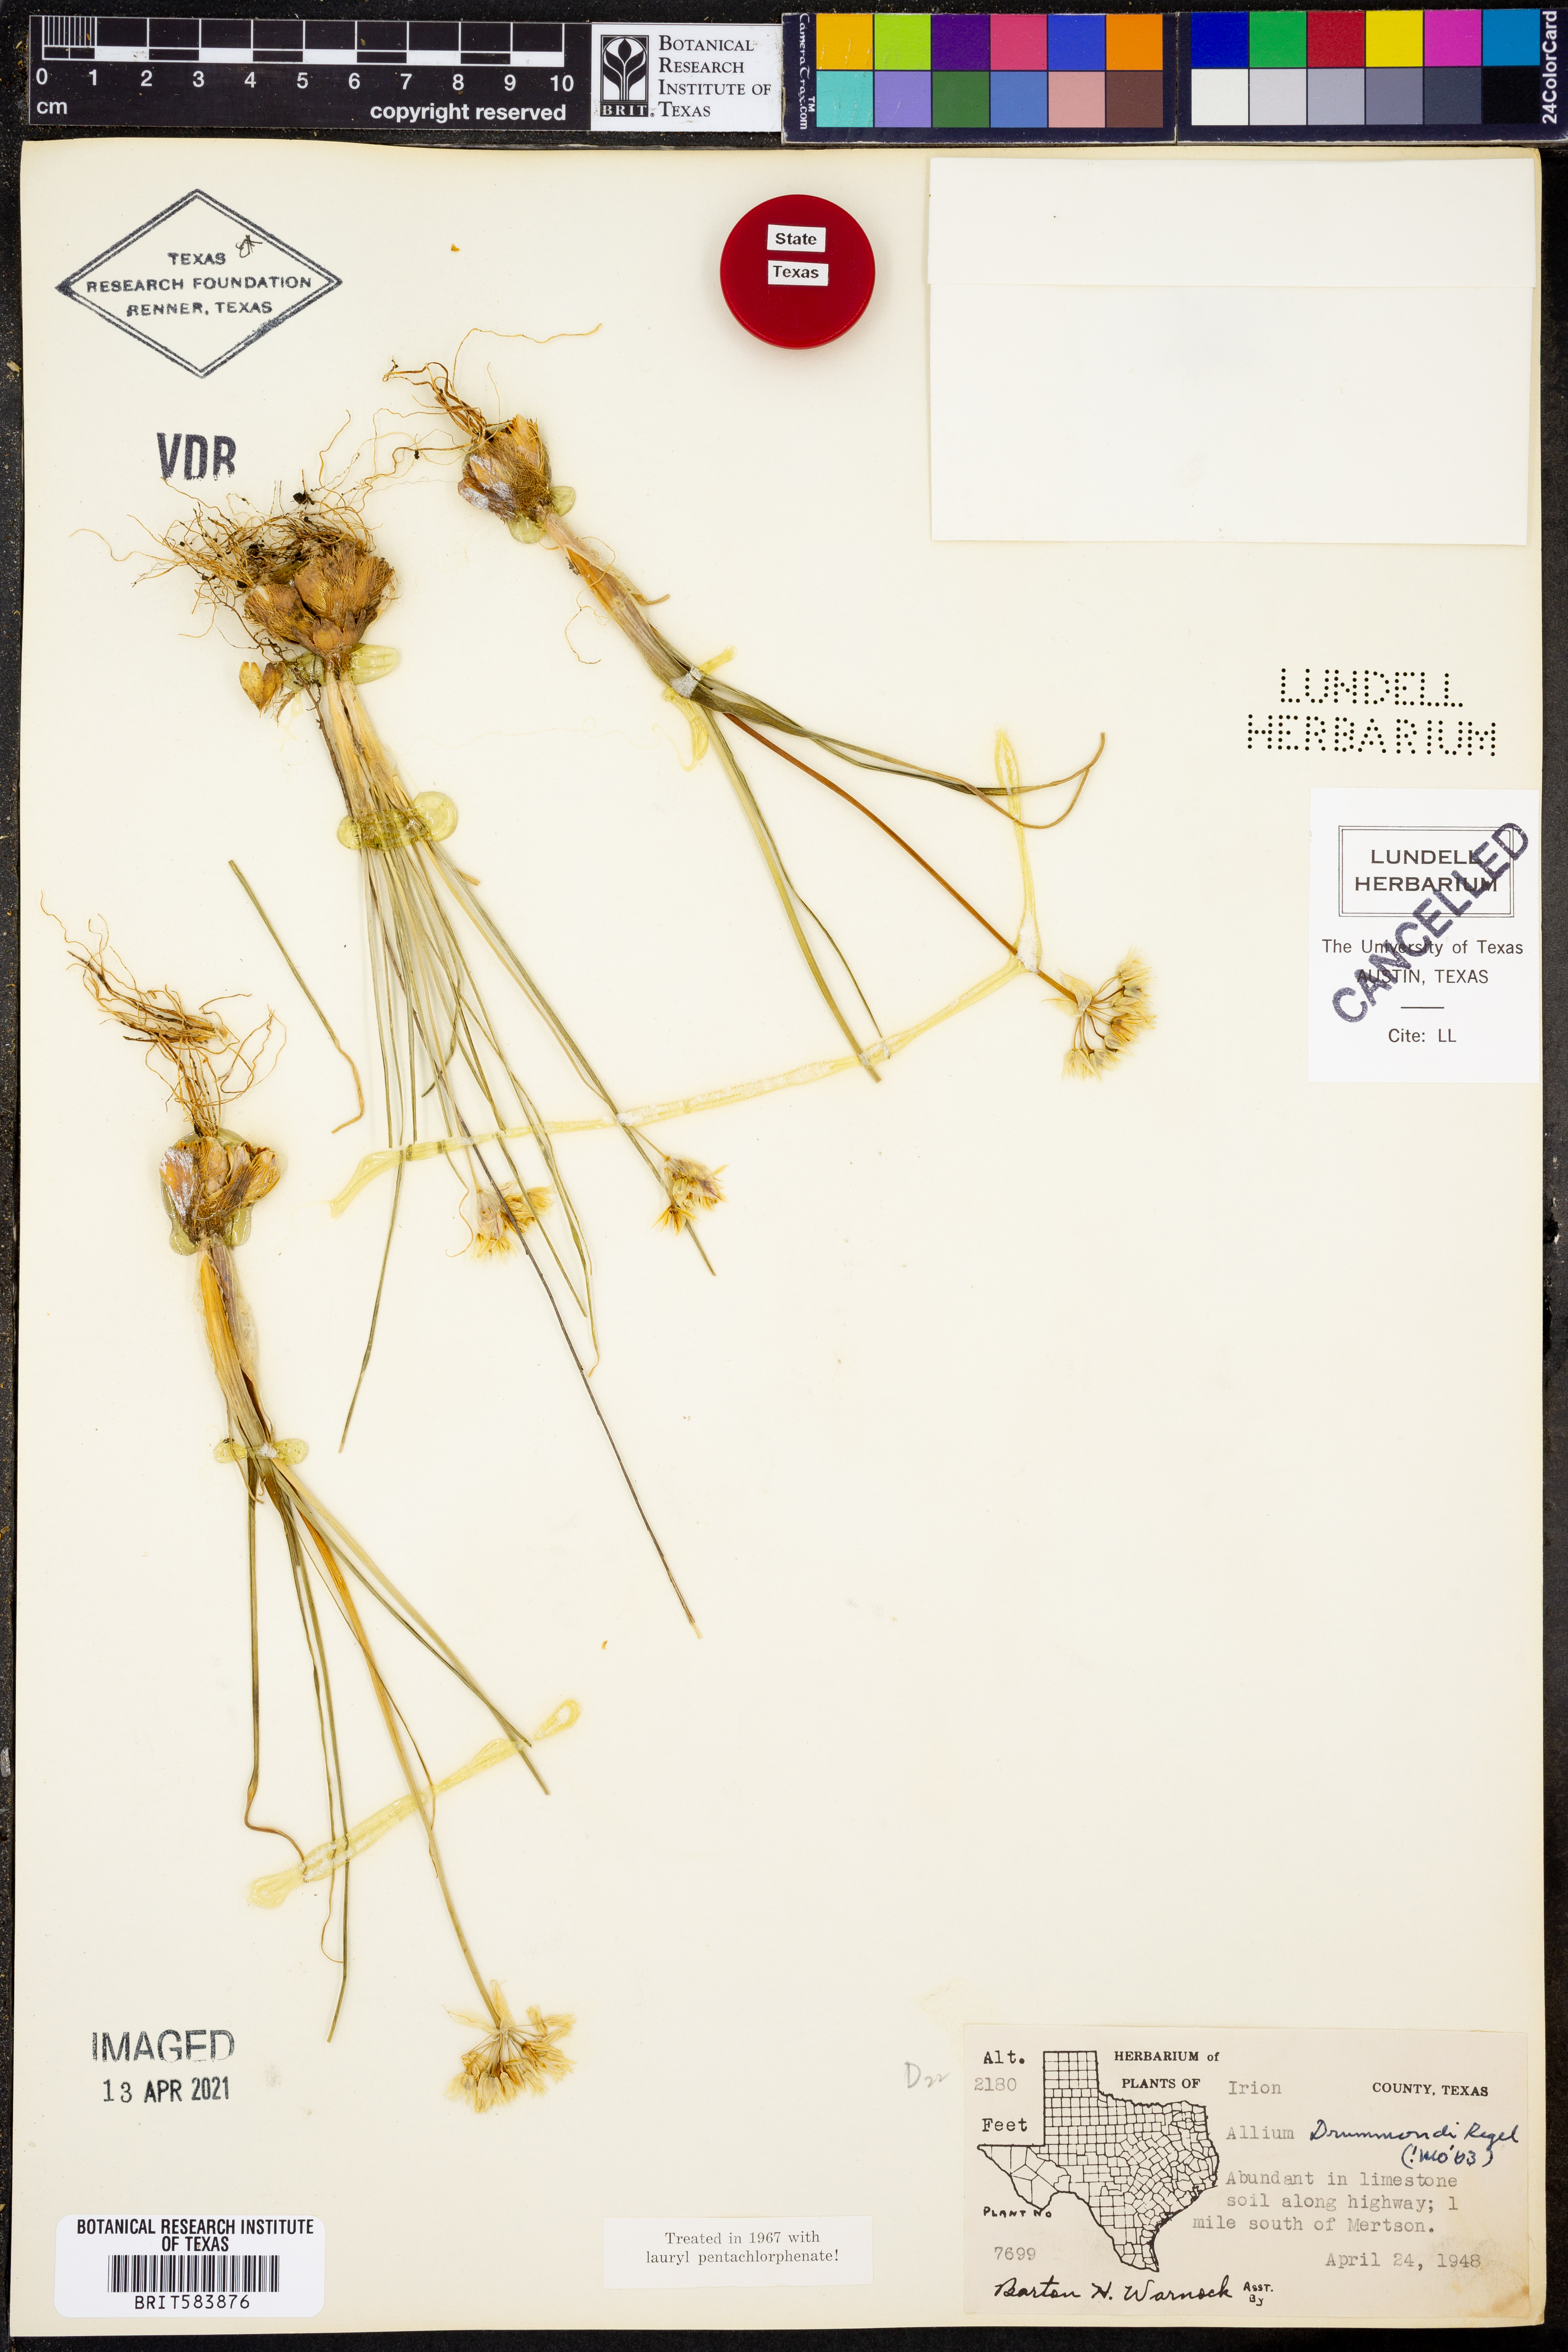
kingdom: Plantae
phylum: Tracheophyta
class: Liliopsida
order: Asparagales
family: Amaryllidaceae
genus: Allium
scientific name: Allium drummondii
